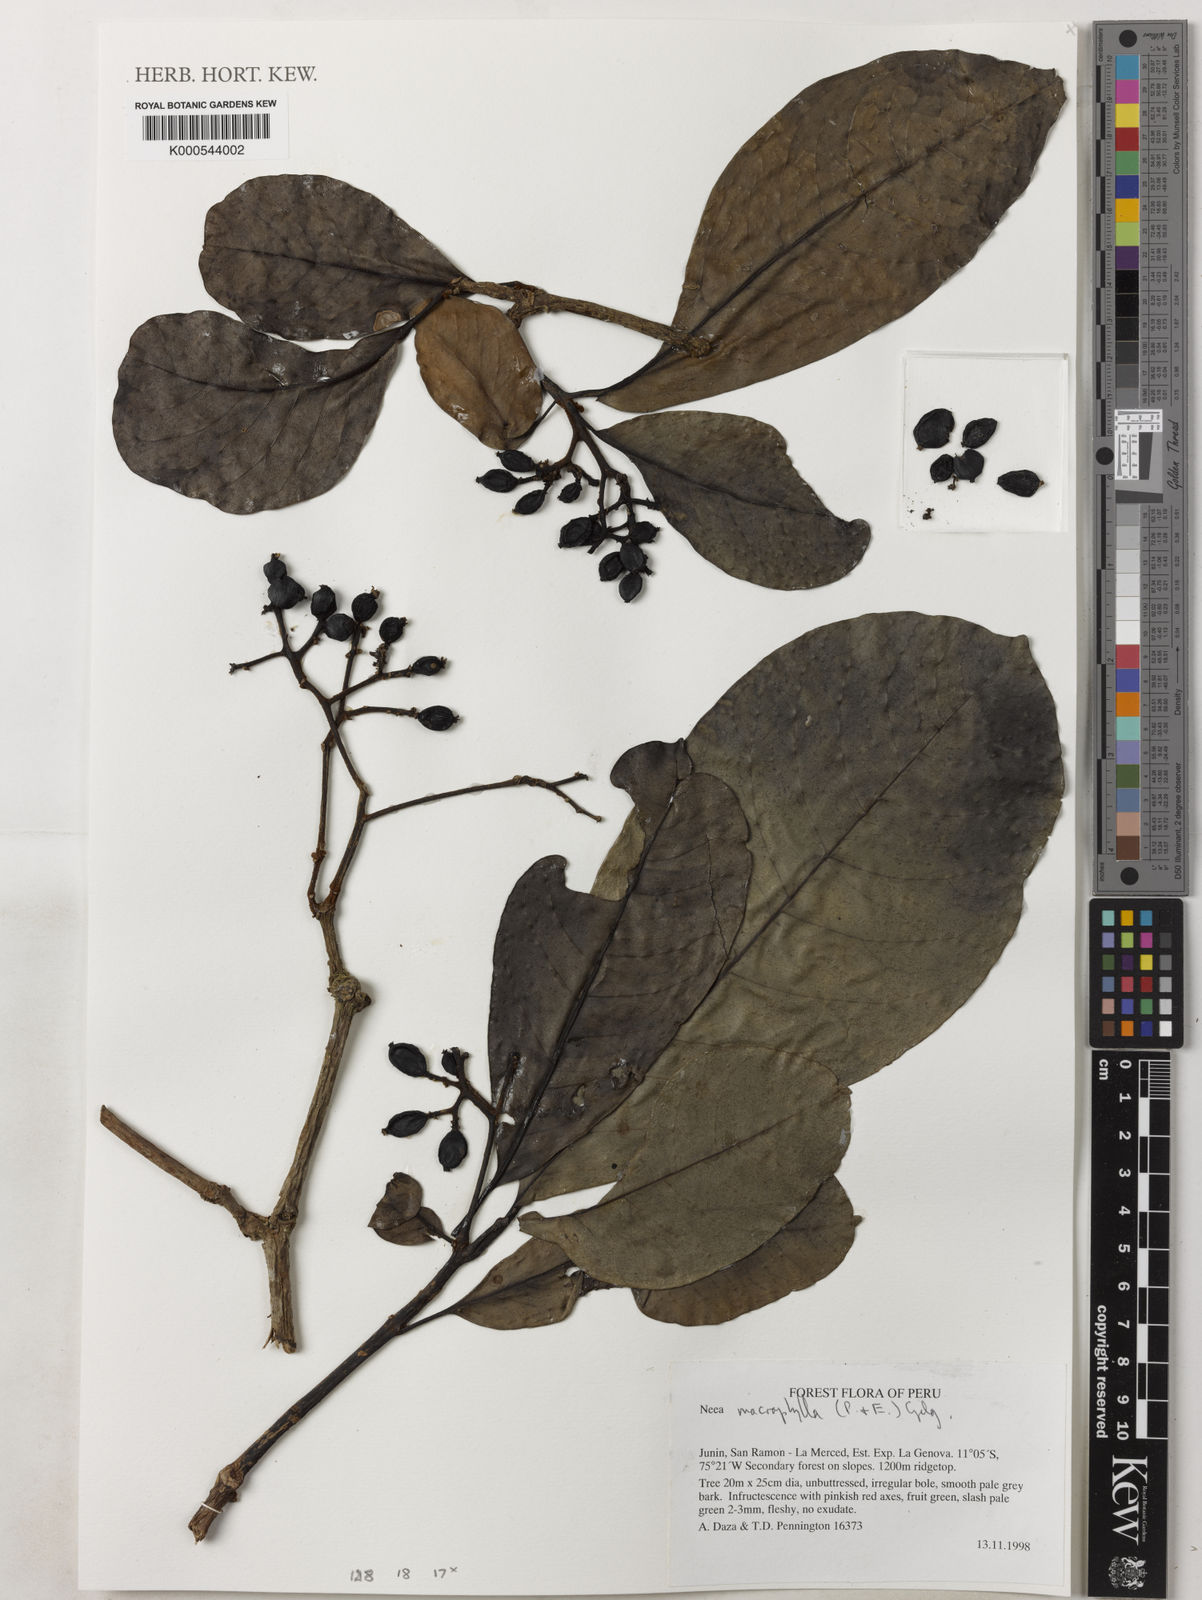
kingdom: Plantae
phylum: Tracheophyta
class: Magnoliopsida
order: Caryophyllales
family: Nyctaginaceae
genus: Neea
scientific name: Neea macrophylla
